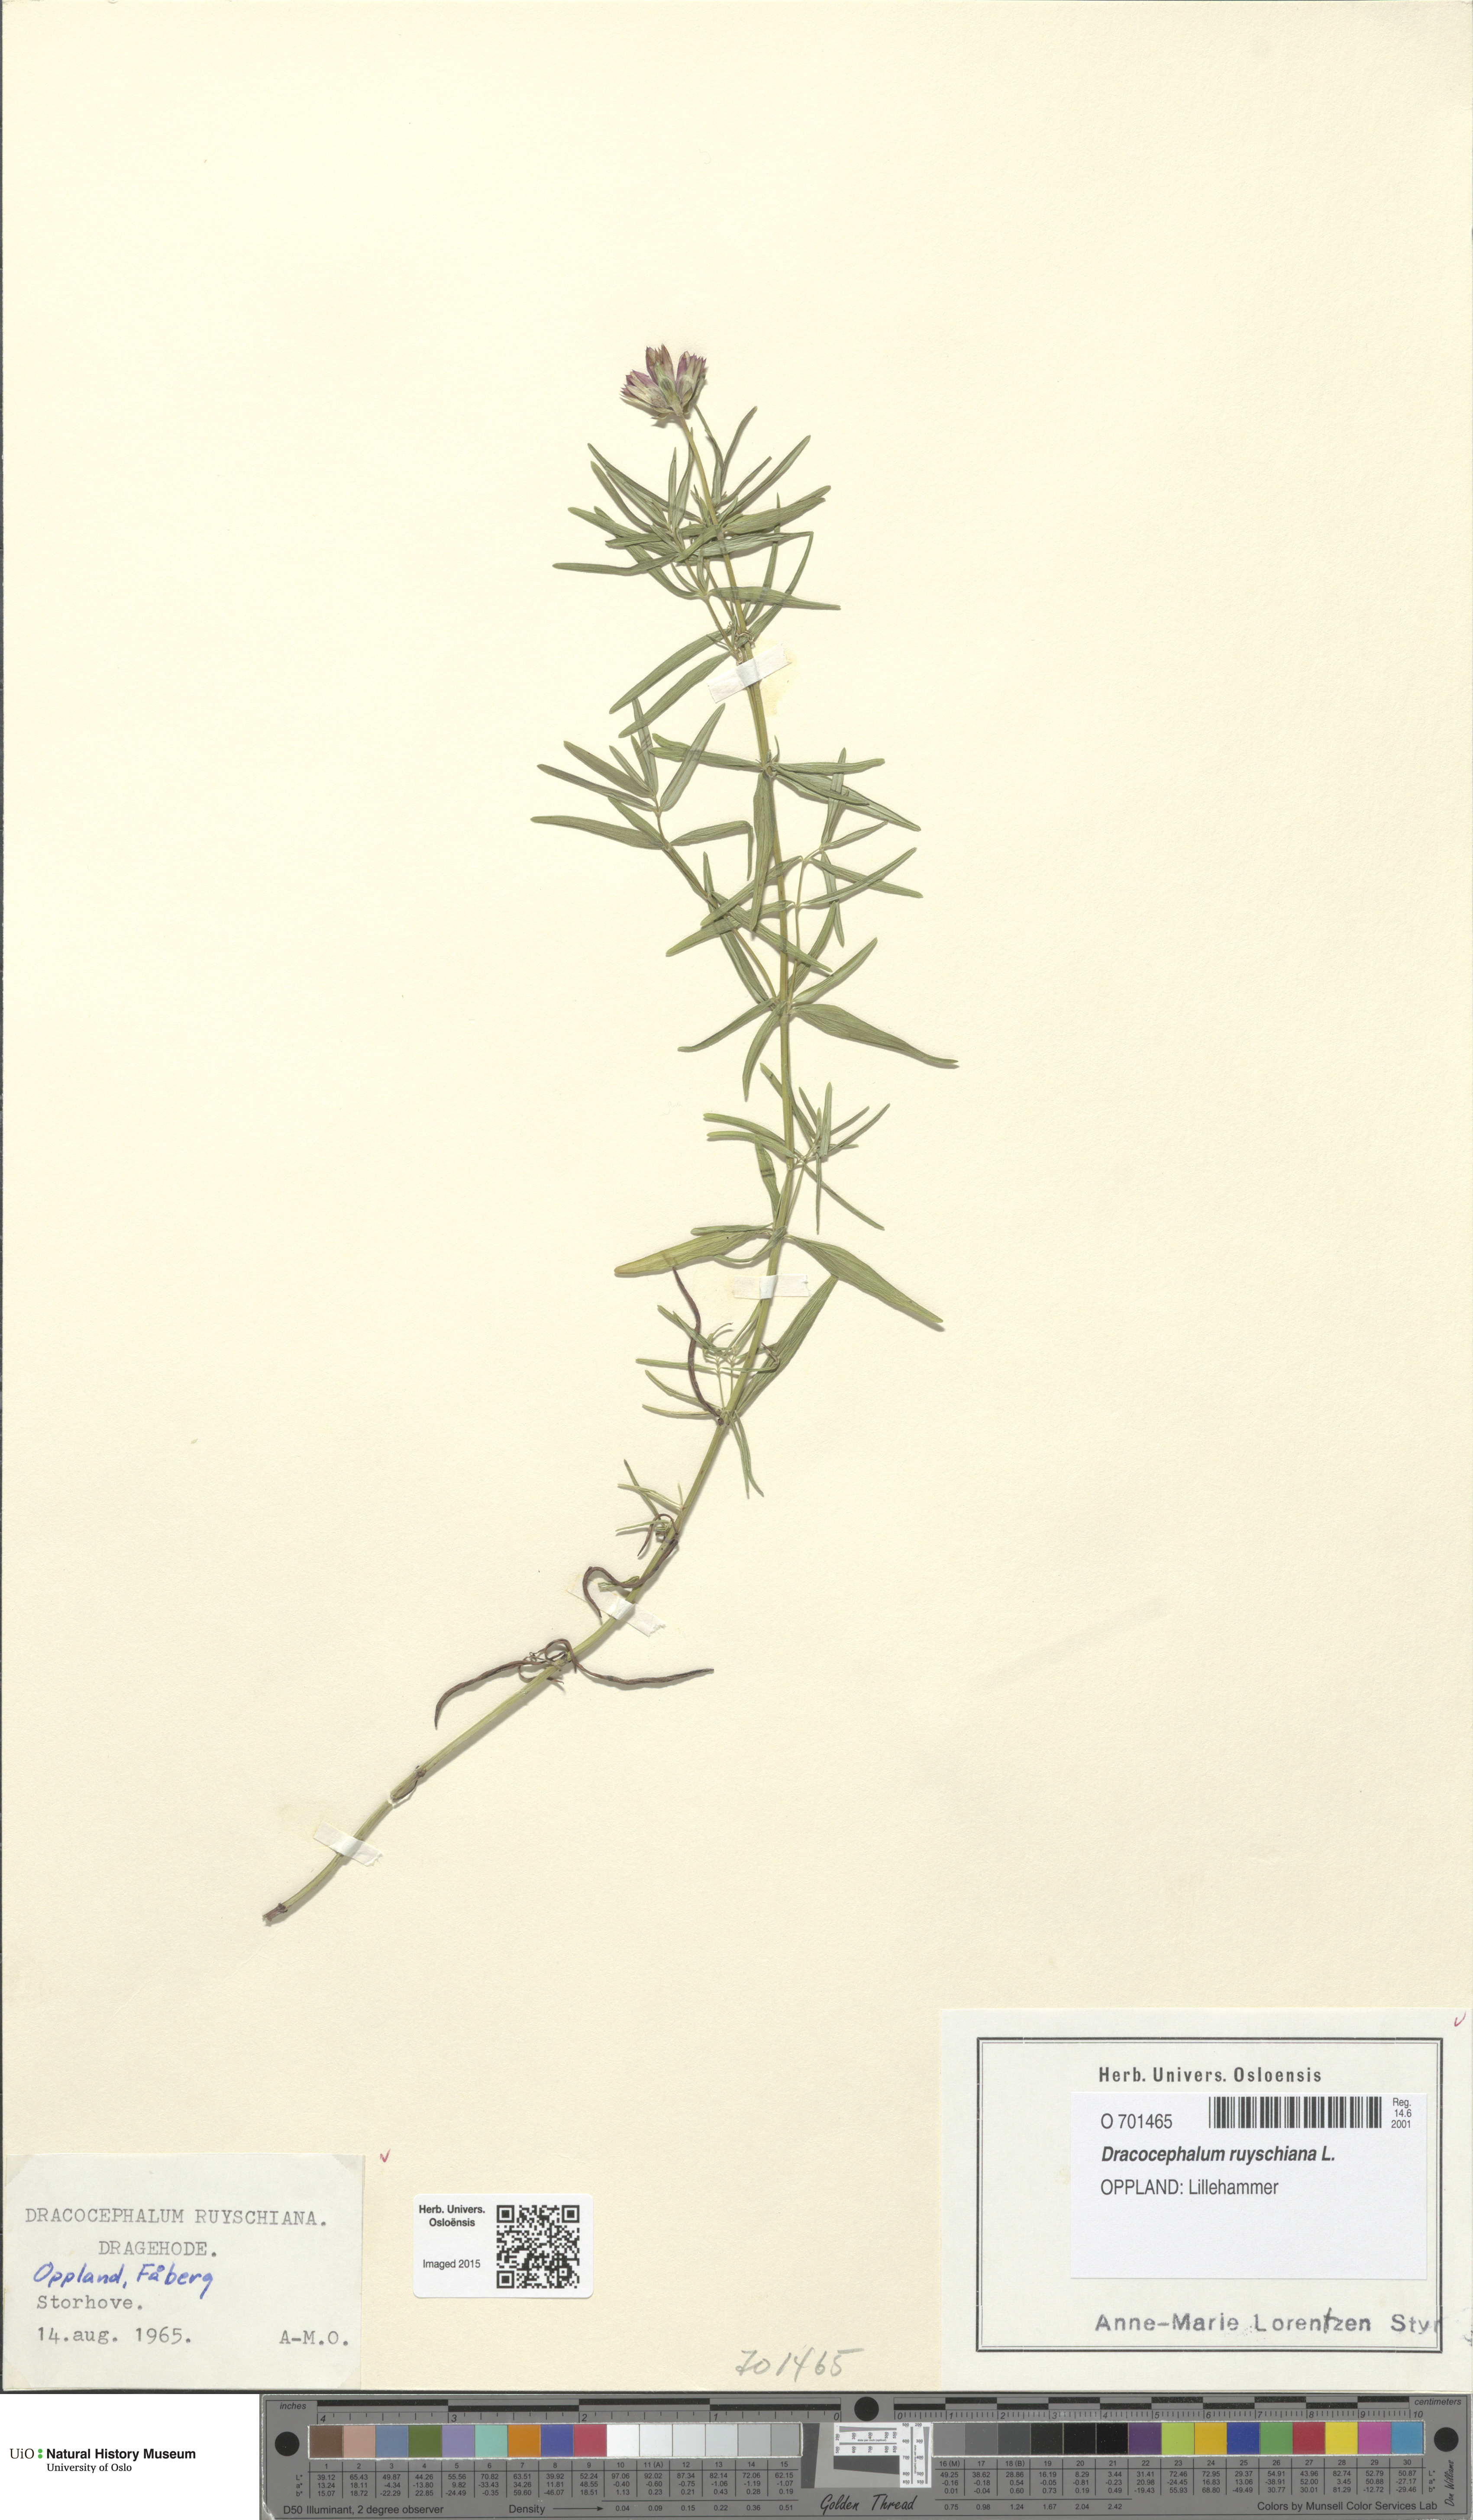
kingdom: Plantae
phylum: Tracheophyta
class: Magnoliopsida
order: Lamiales
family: Lamiaceae
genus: Dracocephalum
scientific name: Dracocephalum ruyschiana
